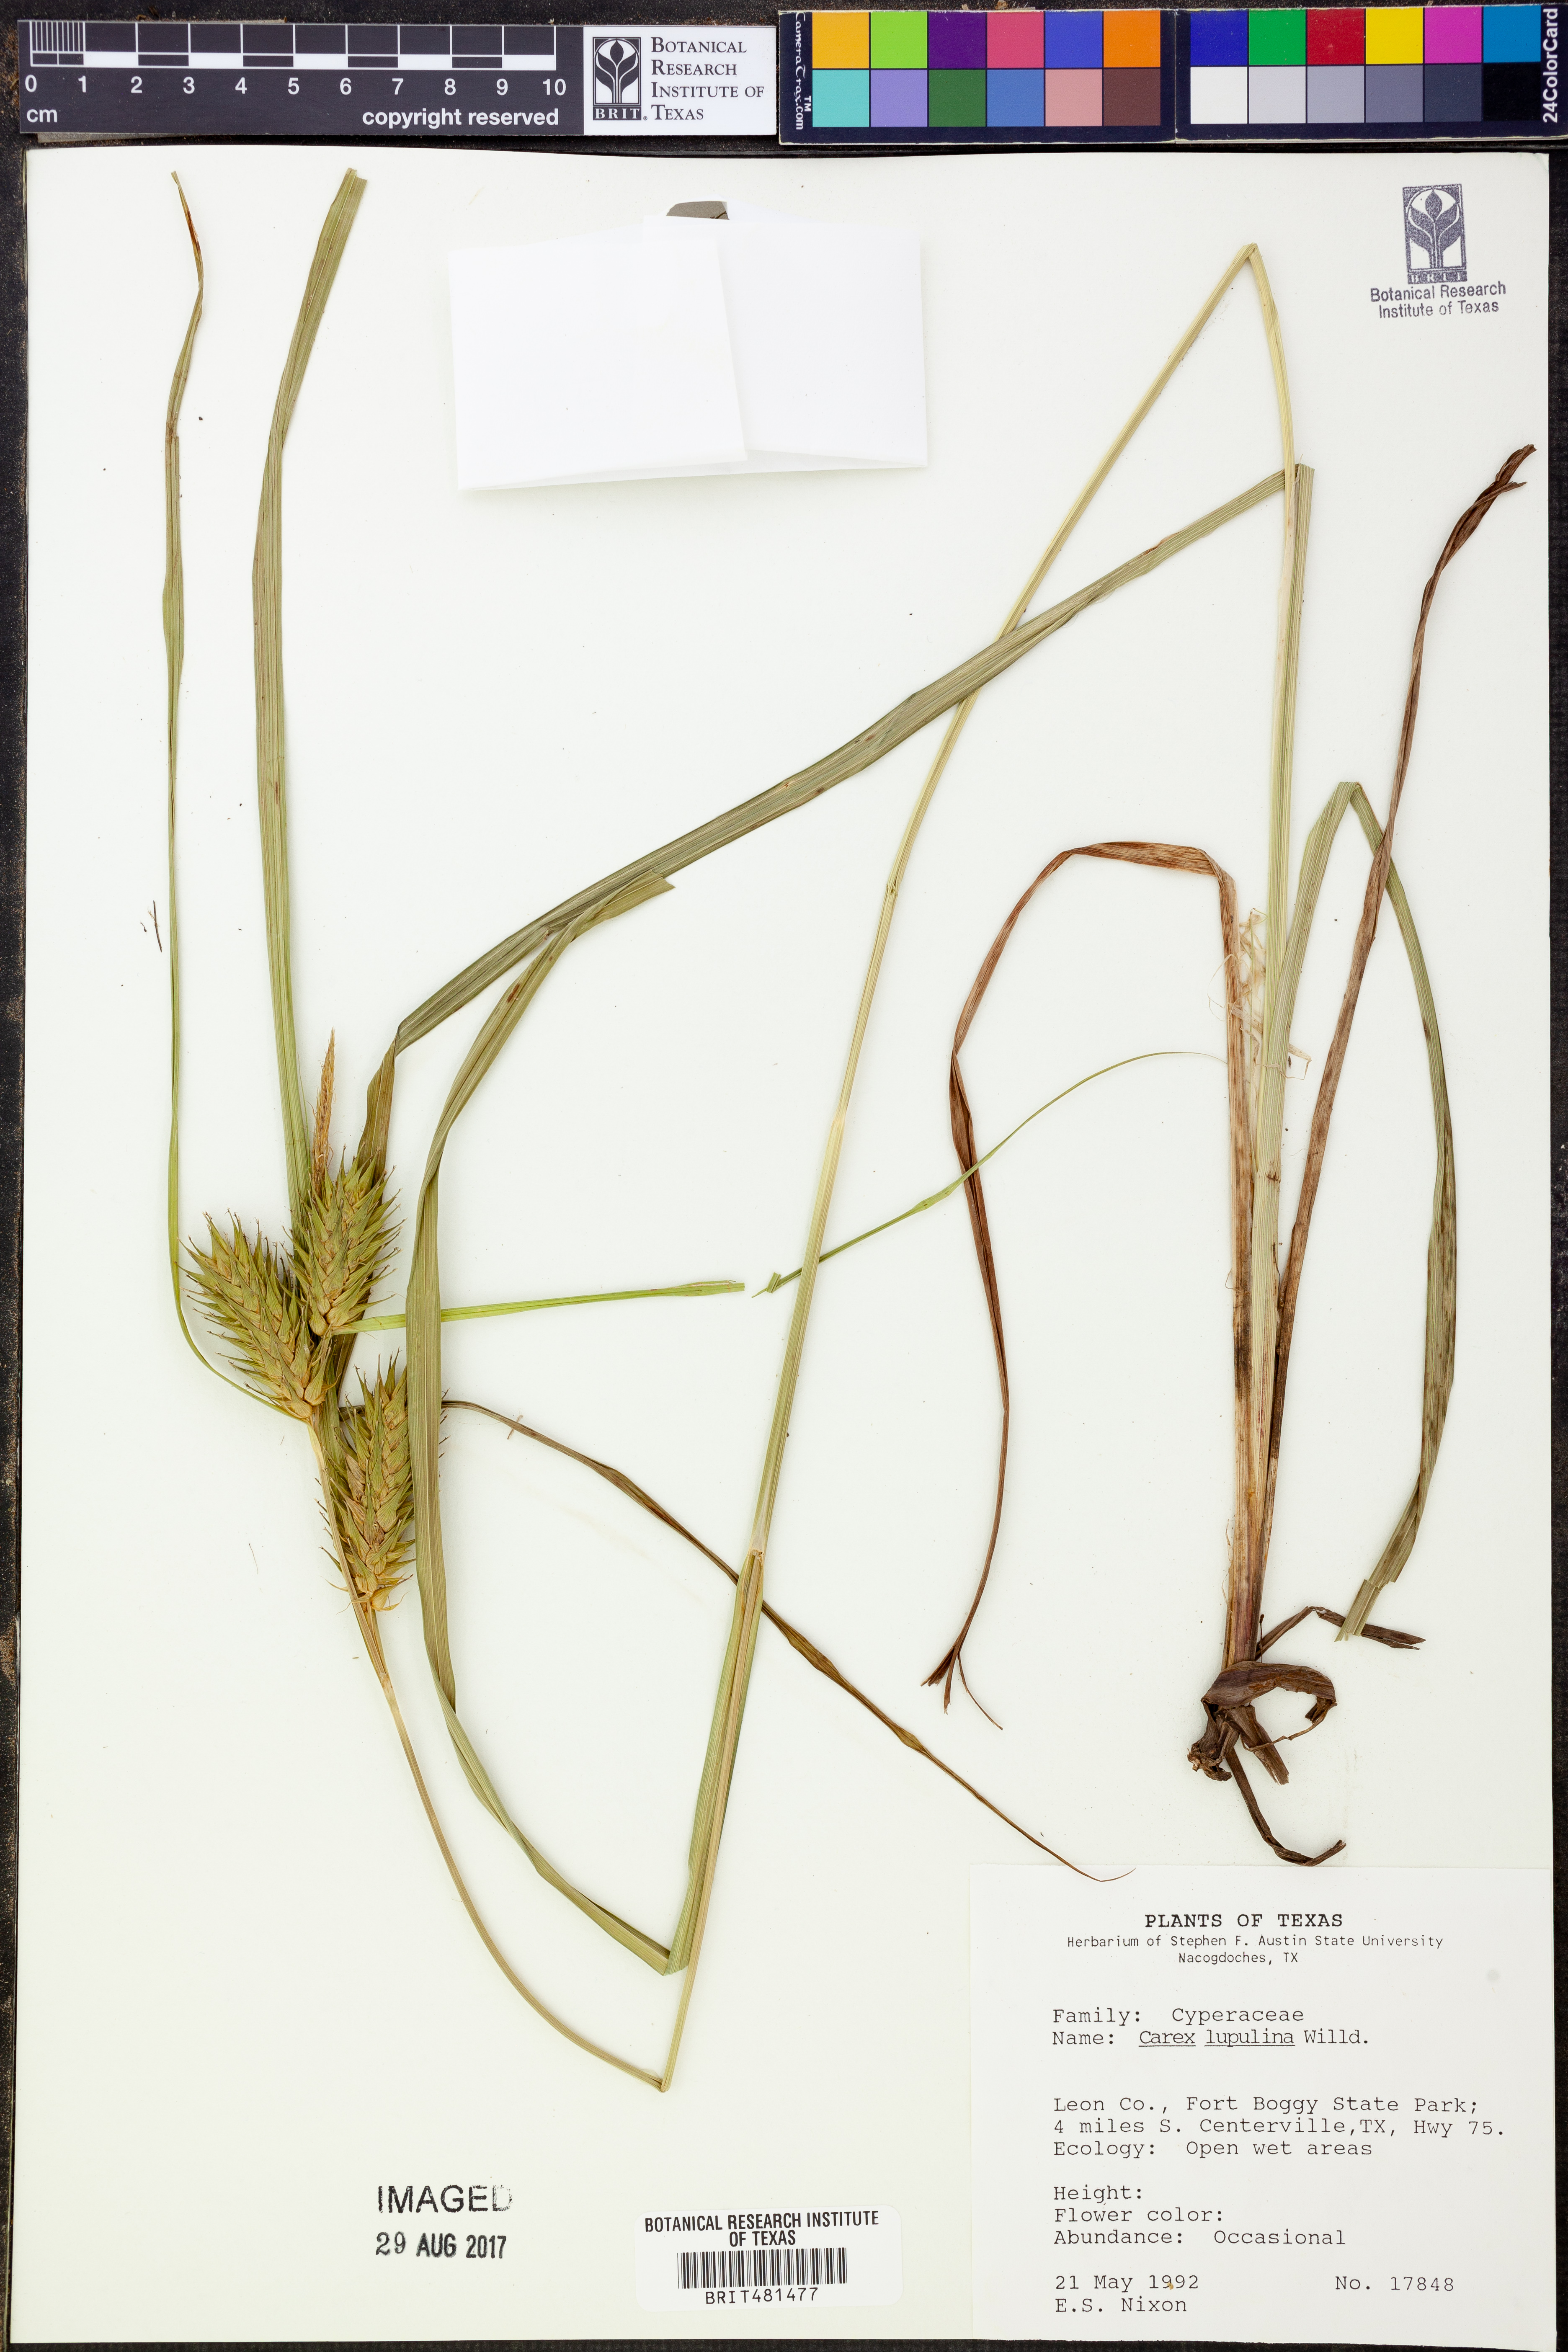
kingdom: Plantae
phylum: Tracheophyta
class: Liliopsida
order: Poales
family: Cyperaceae
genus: Carex
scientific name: Carex lupulina
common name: Hop sedge
